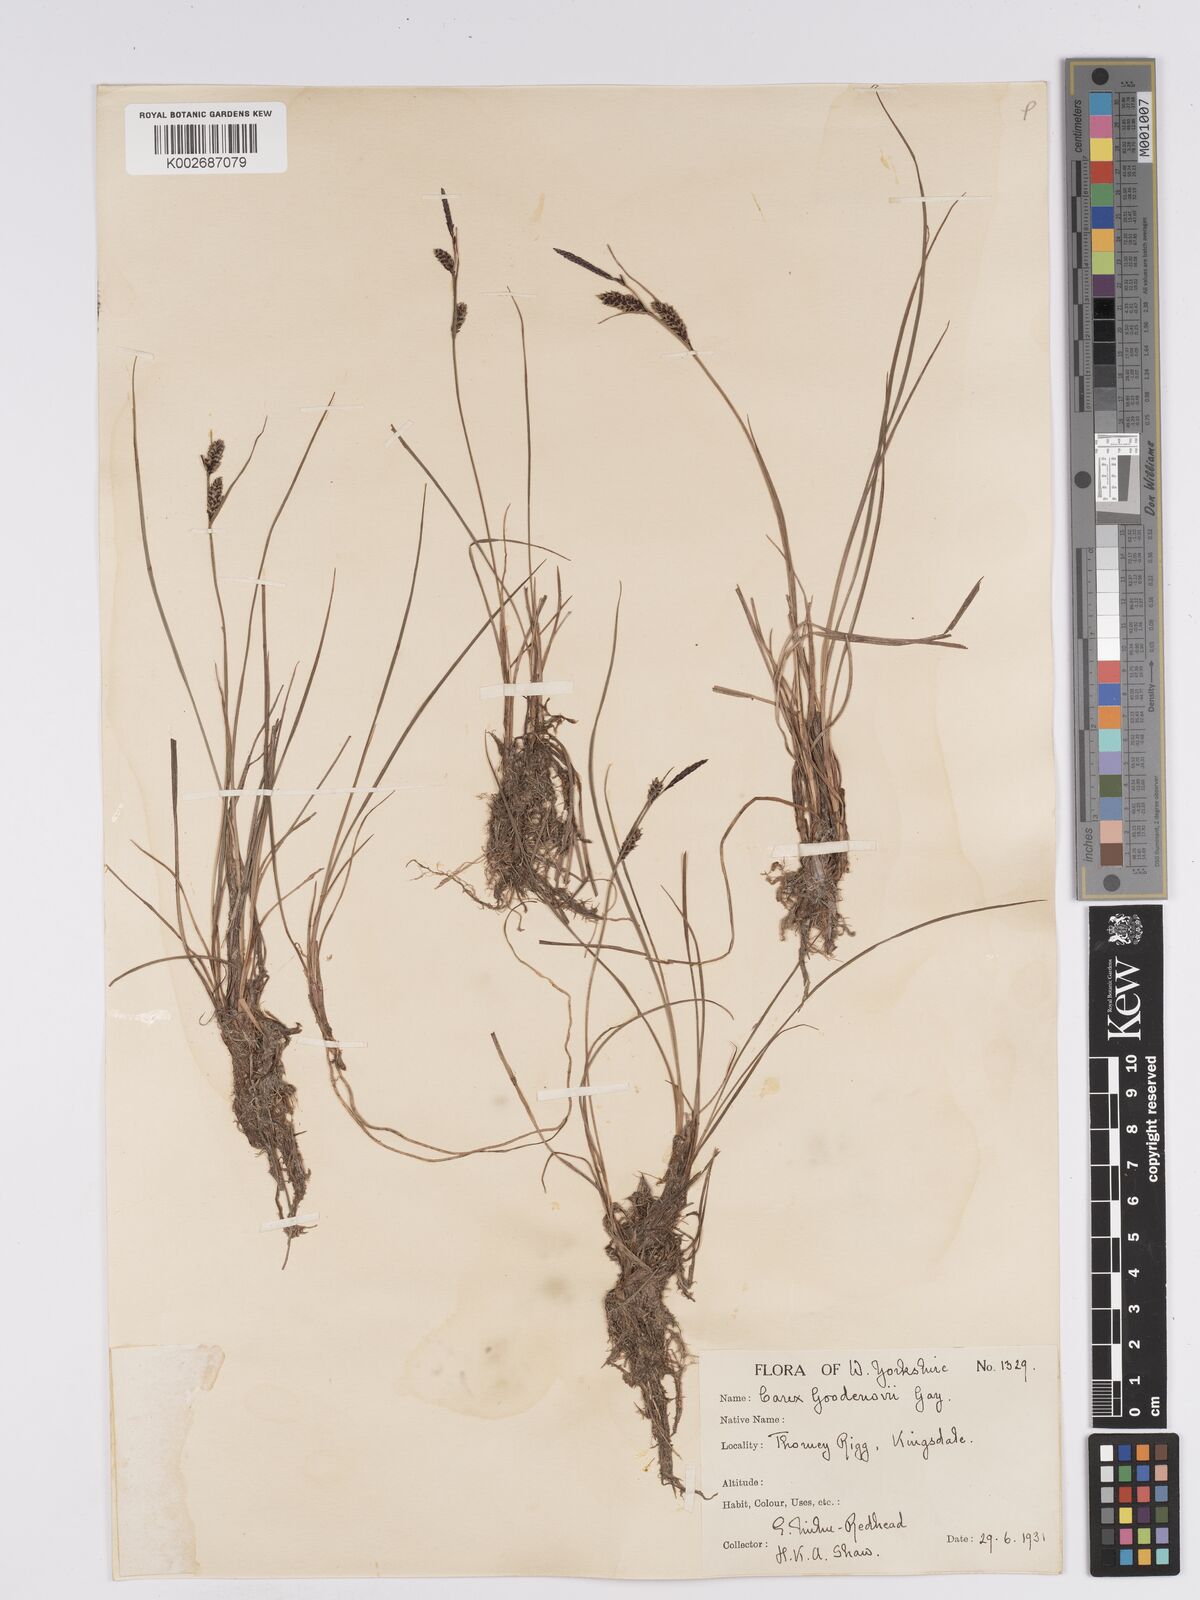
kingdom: Plantae
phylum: Tracheophyta
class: Liliopsida
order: Poales
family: Cyperaceae
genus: Carex
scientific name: Carex nigra
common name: Common sedge
